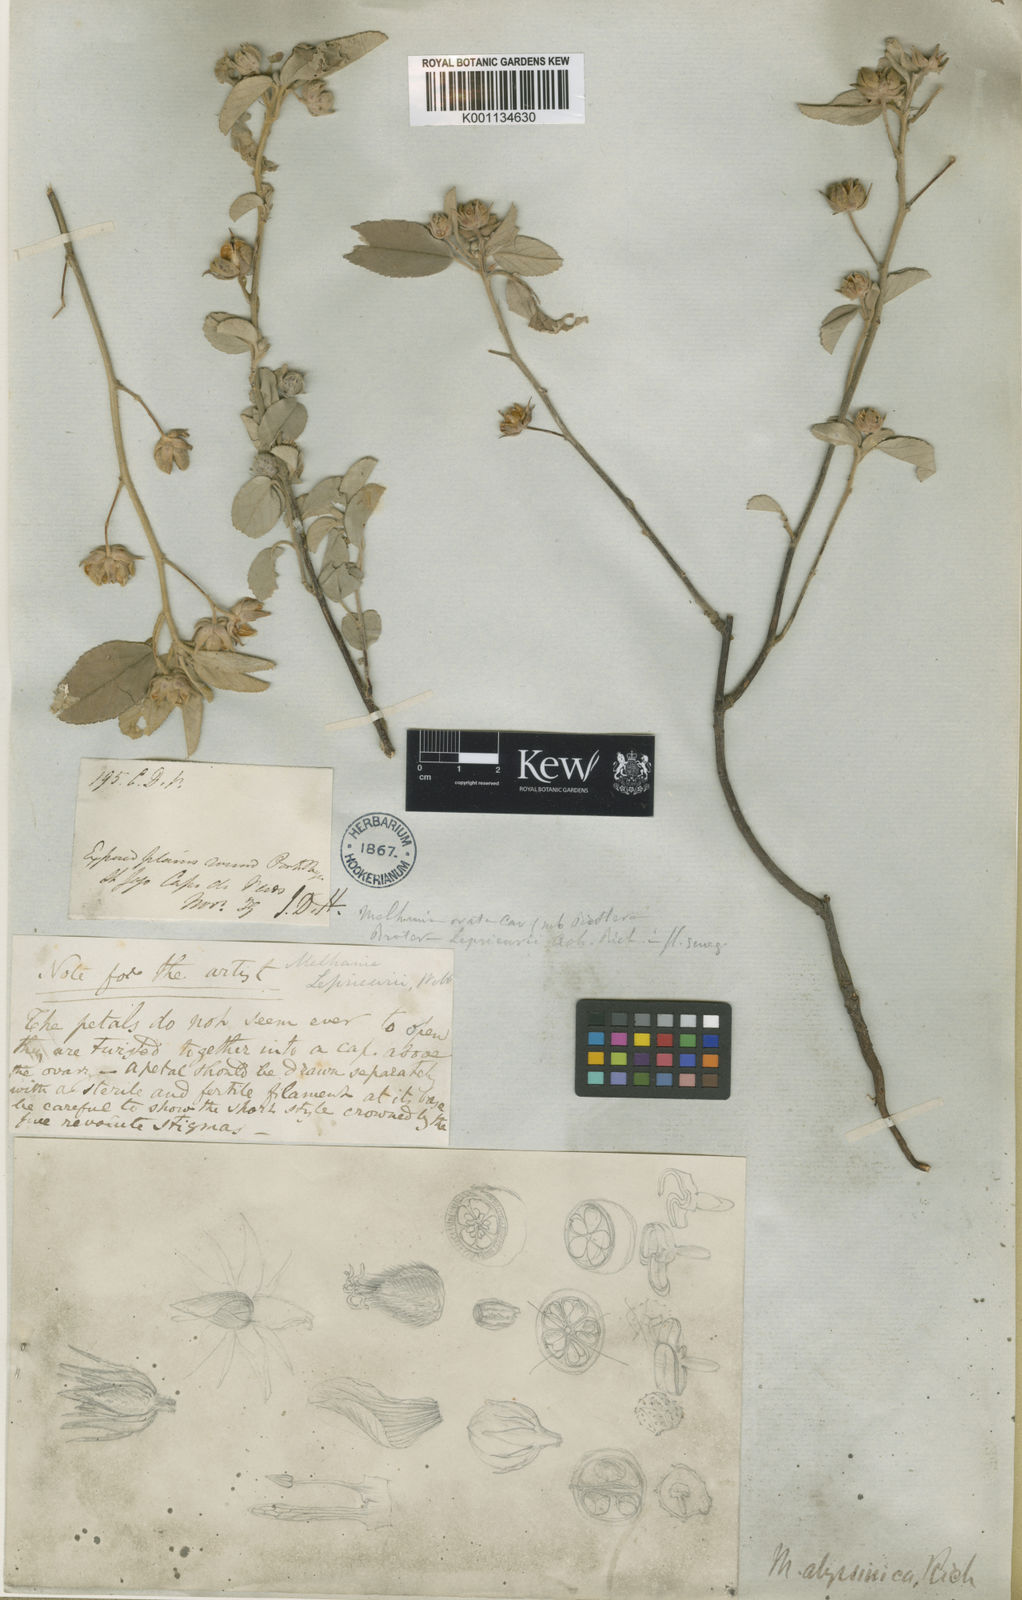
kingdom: Plantae
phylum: Tracheophyta
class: Magnoliopsida
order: Malvales
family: Malvaceae
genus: Melhania
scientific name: Melhania
